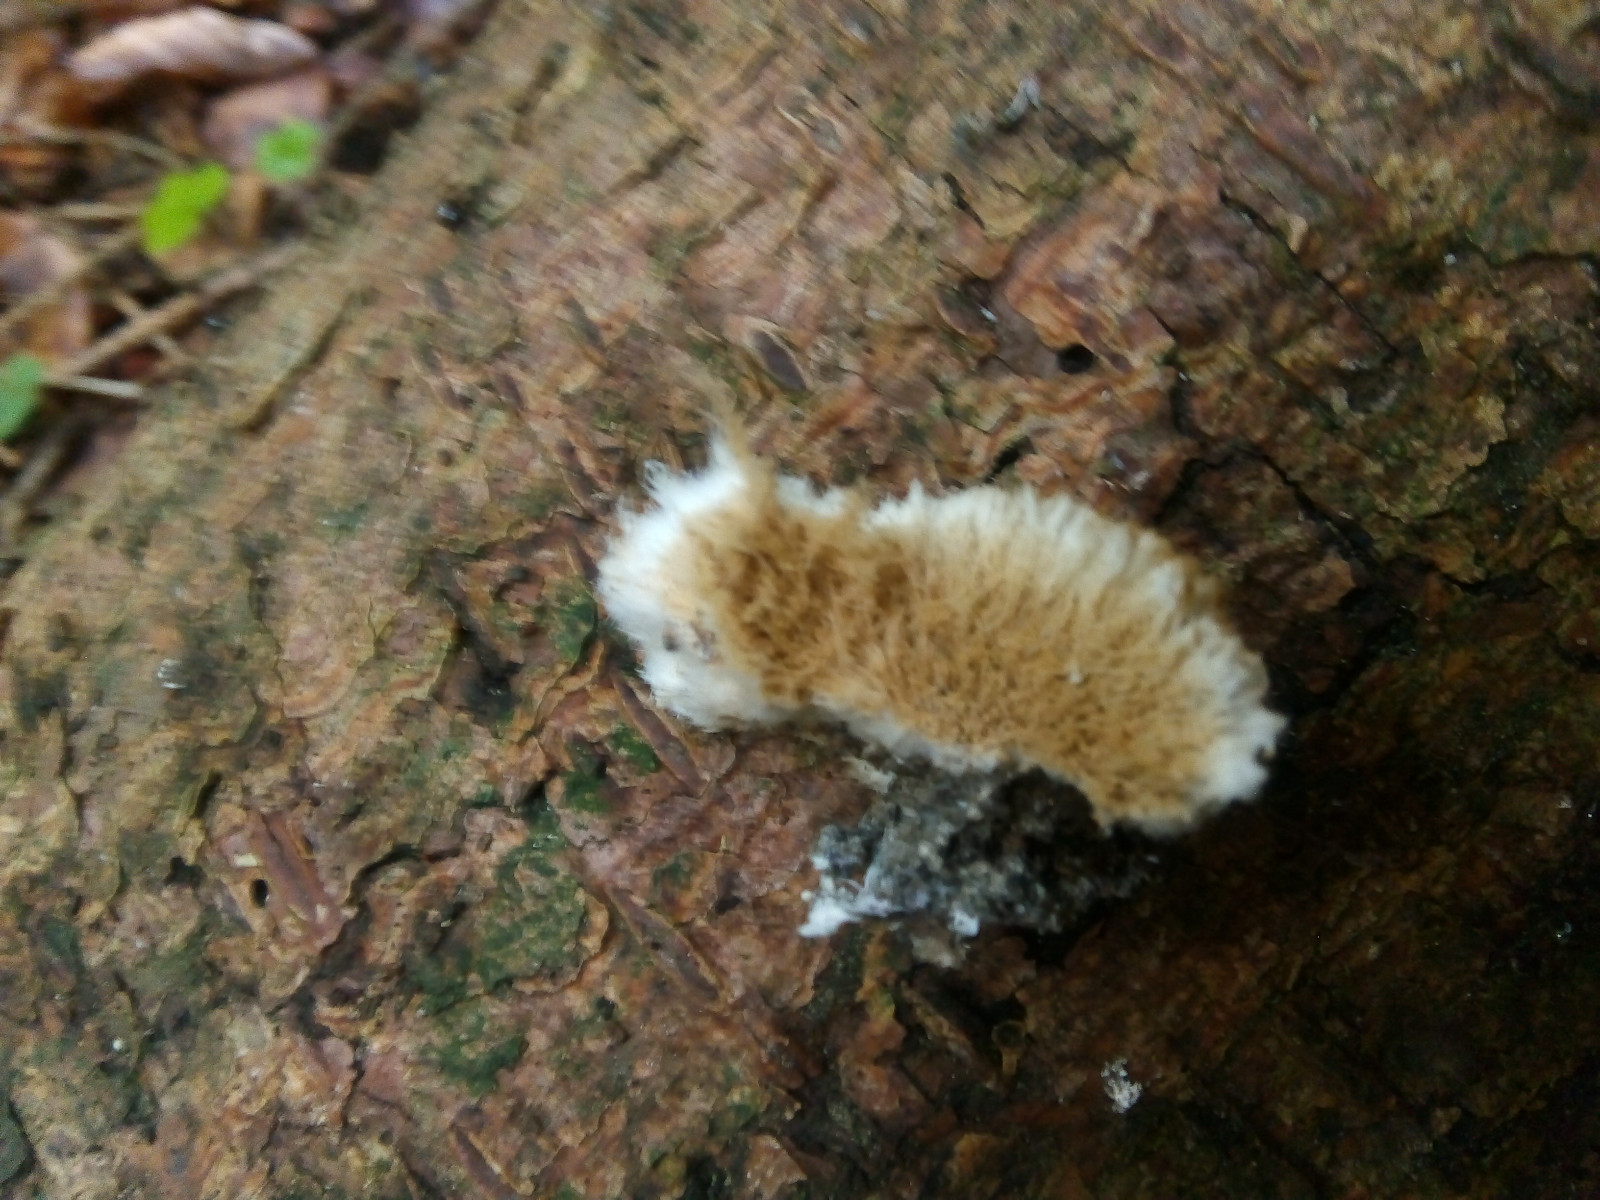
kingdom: Fungi
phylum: Basidiomycota
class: Agaricomycetes
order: Polyporales
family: Dacryobolaceae
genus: Postia
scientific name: Postia ptychogaster
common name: støvende kødporesvamp
